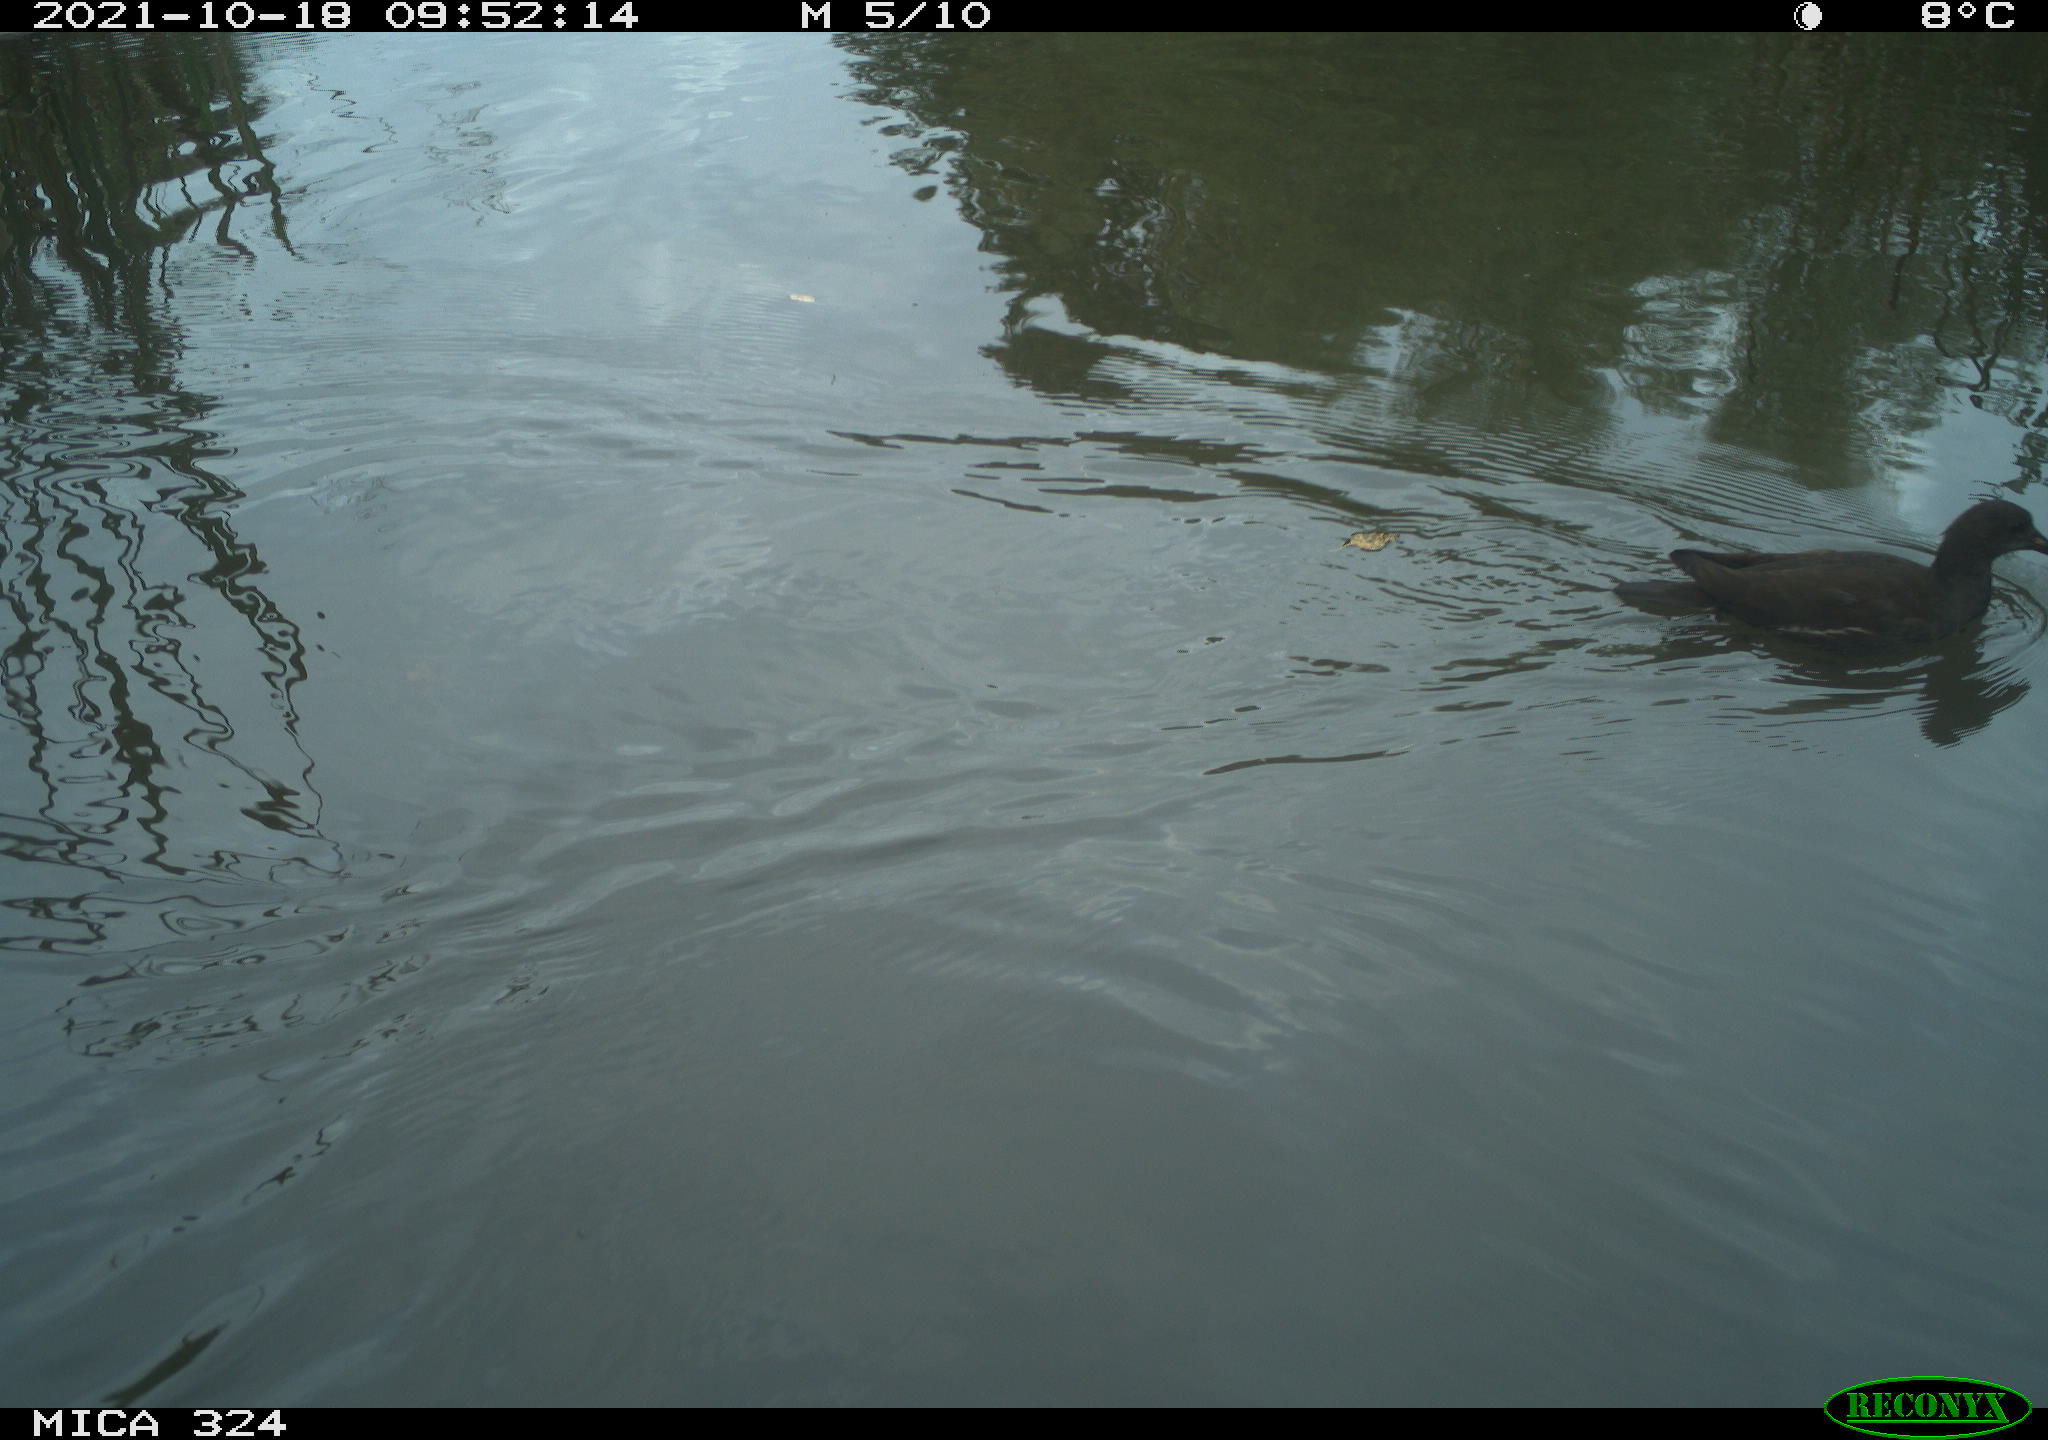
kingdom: Animalia
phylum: Chordata
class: Aves
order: Gruiformes
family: Rallidae
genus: Gallinula
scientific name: Gallinula chloropus
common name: Common moorhen
